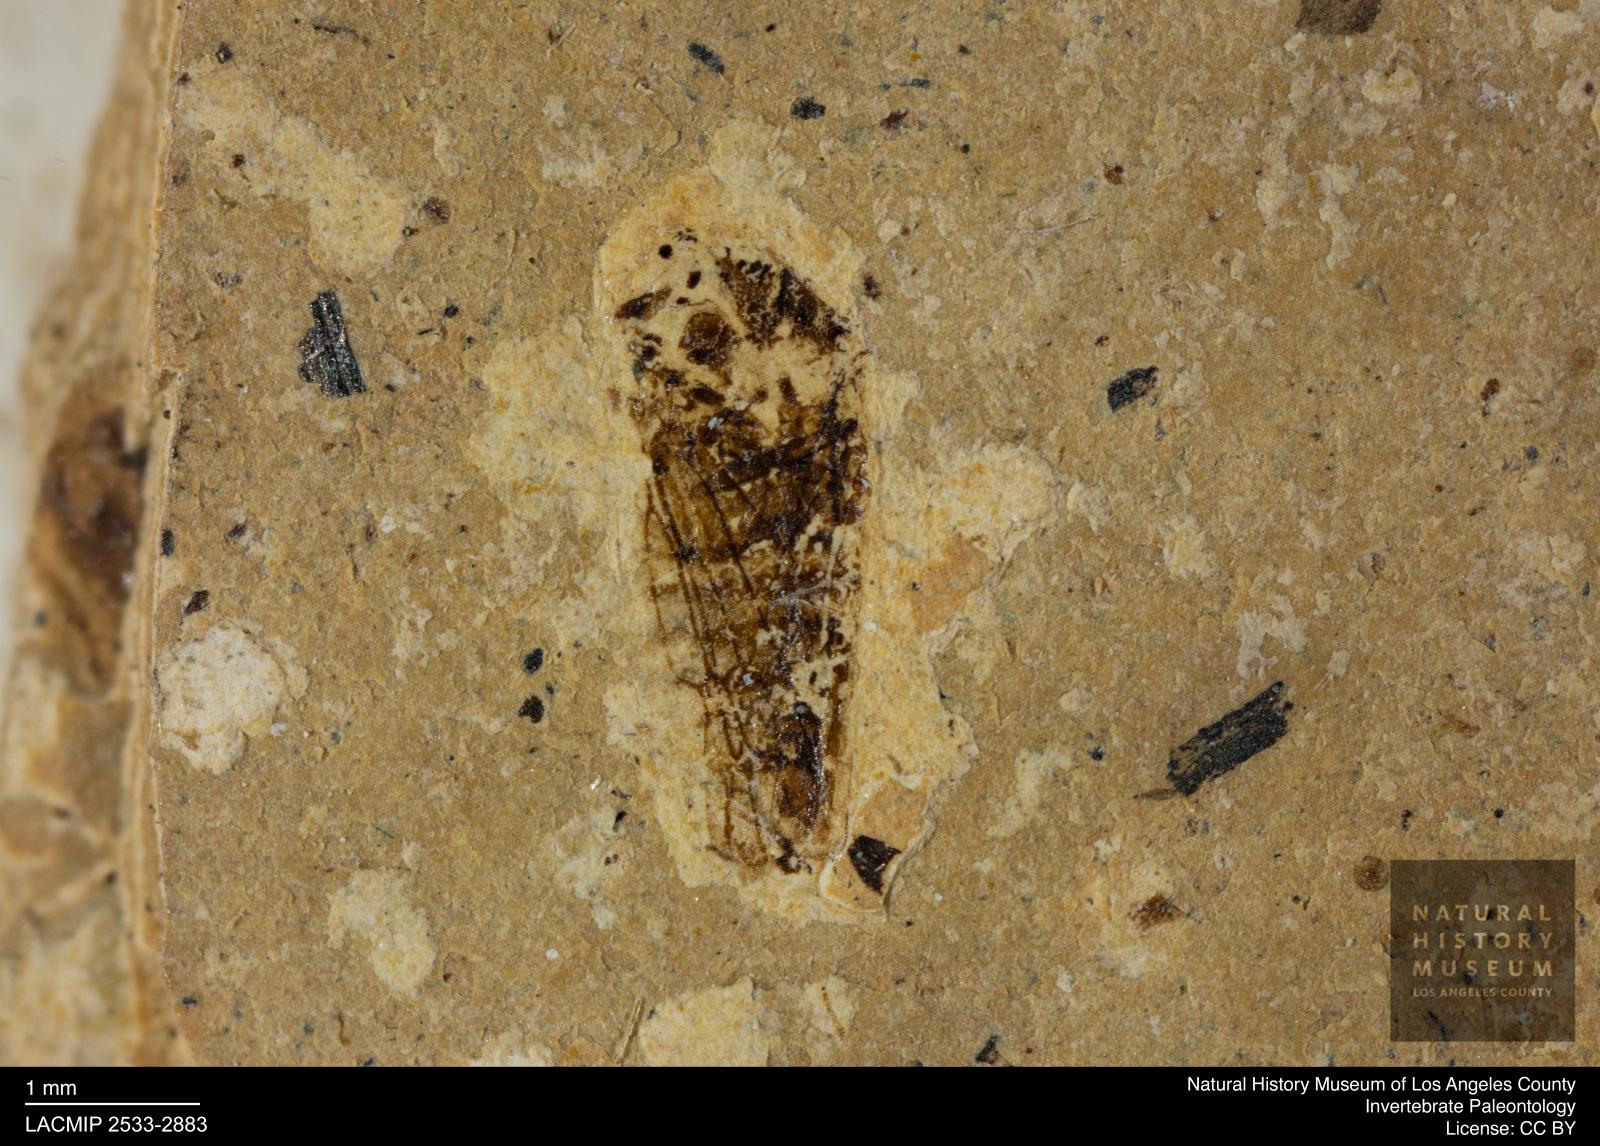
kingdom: Animalia
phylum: Arthropoda
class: Insecta
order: Hemiptera
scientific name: Hemiptera
